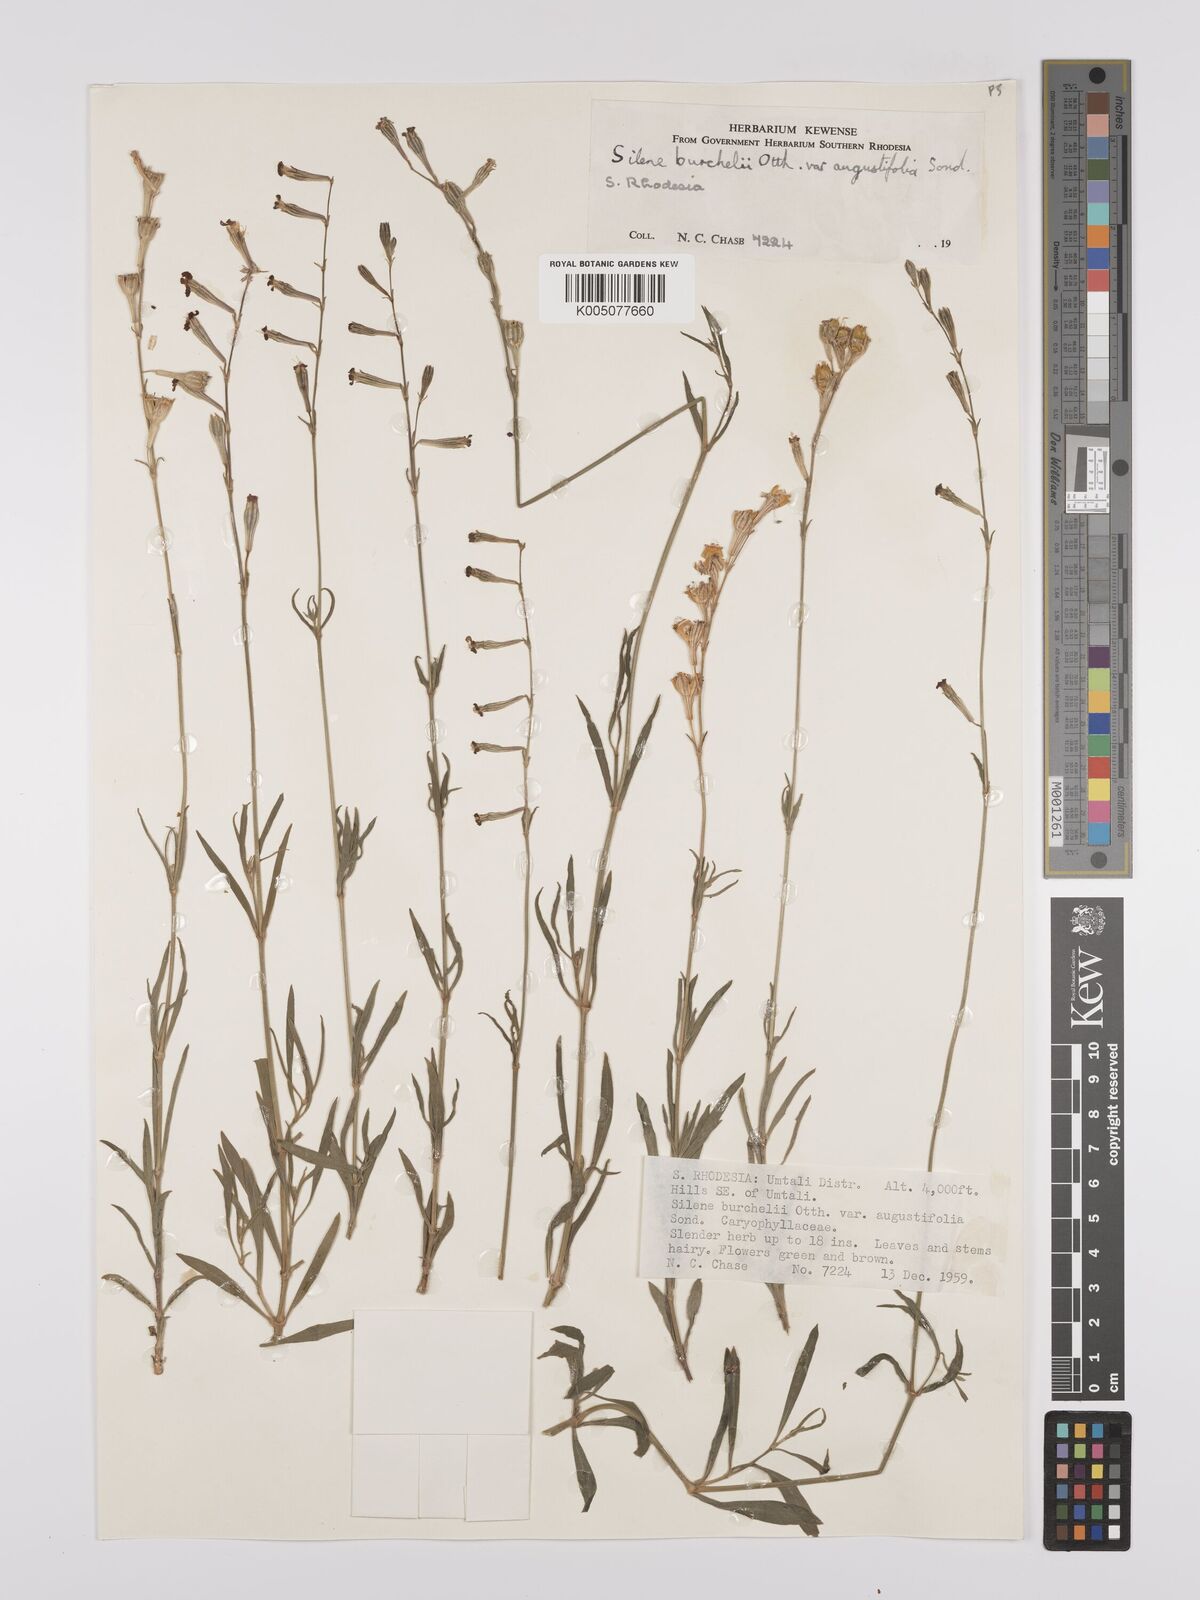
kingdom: Plantae
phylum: Tracheophyta
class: Magnoliopsida
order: Caryophyllales
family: Caryophyllaceae
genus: Silene
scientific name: Silene burchellii
